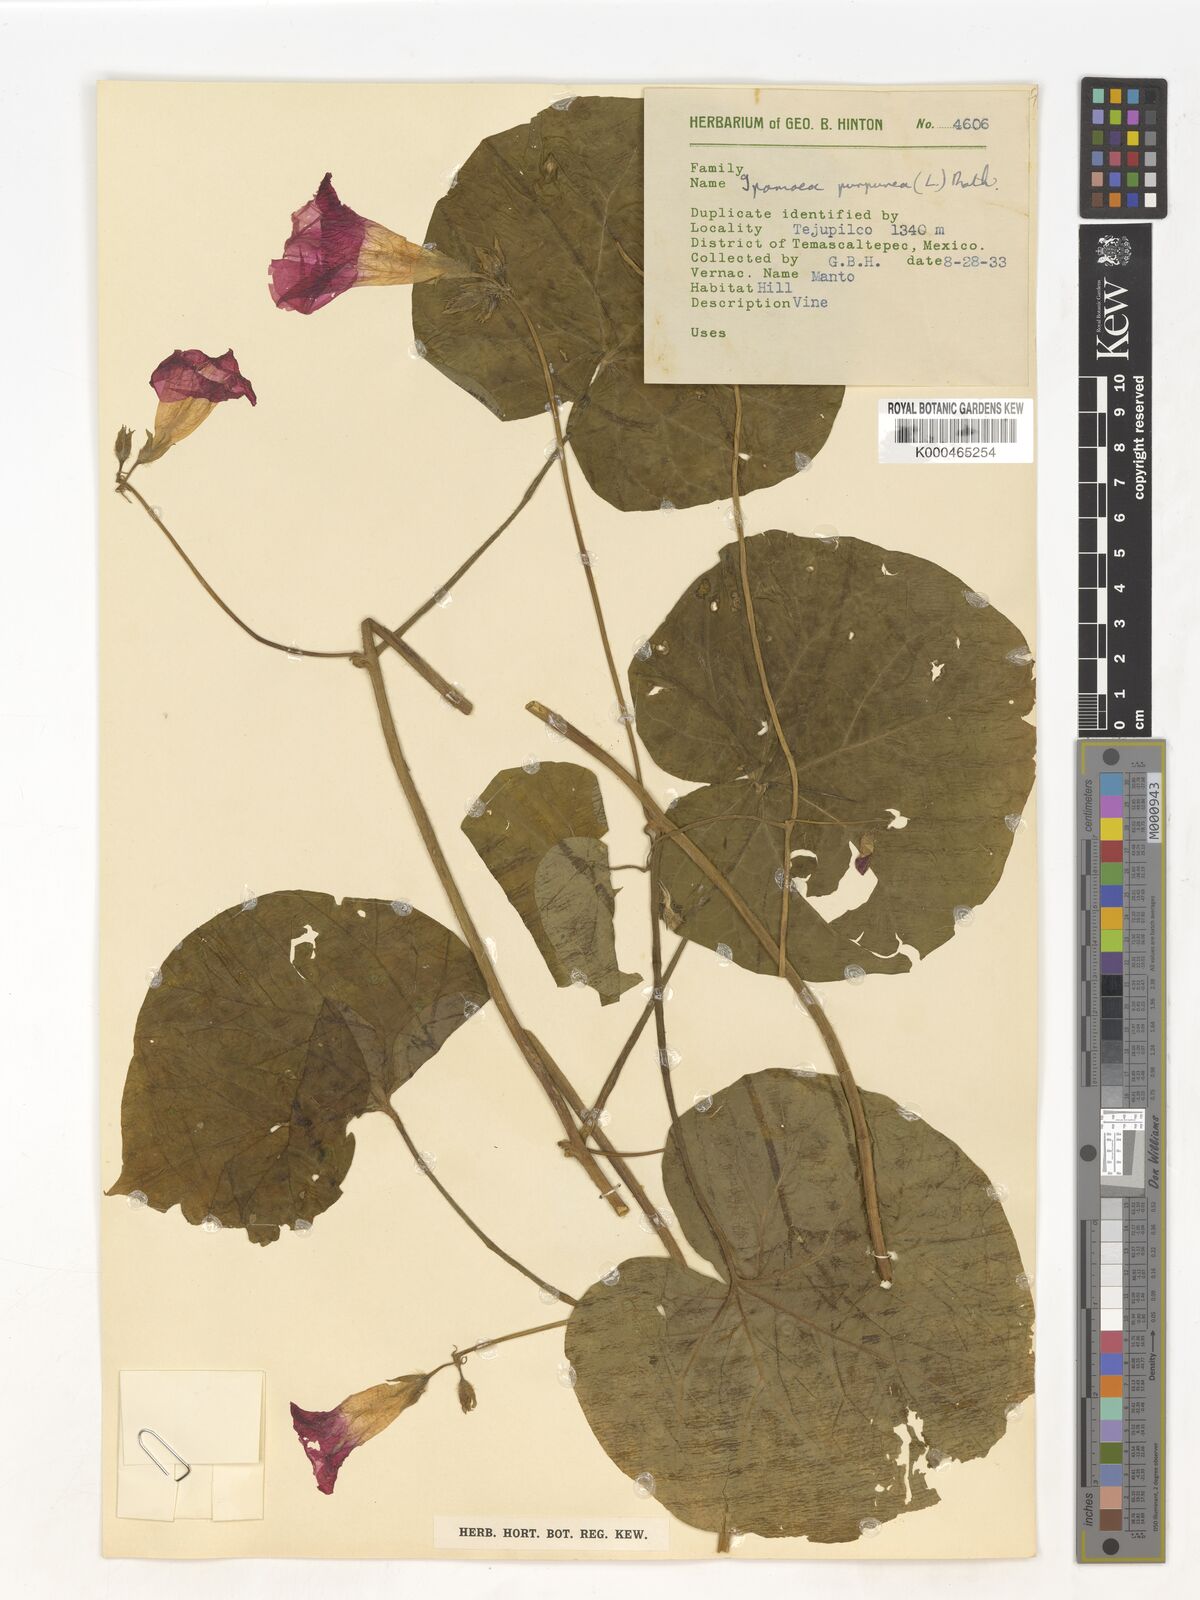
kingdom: Plantae
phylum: Tracheophyta
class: Magnoliopsida
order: Solanales
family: Convolvulaceae
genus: Ipomoea
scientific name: Ipomoea purpurea
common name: Common morning-glory
